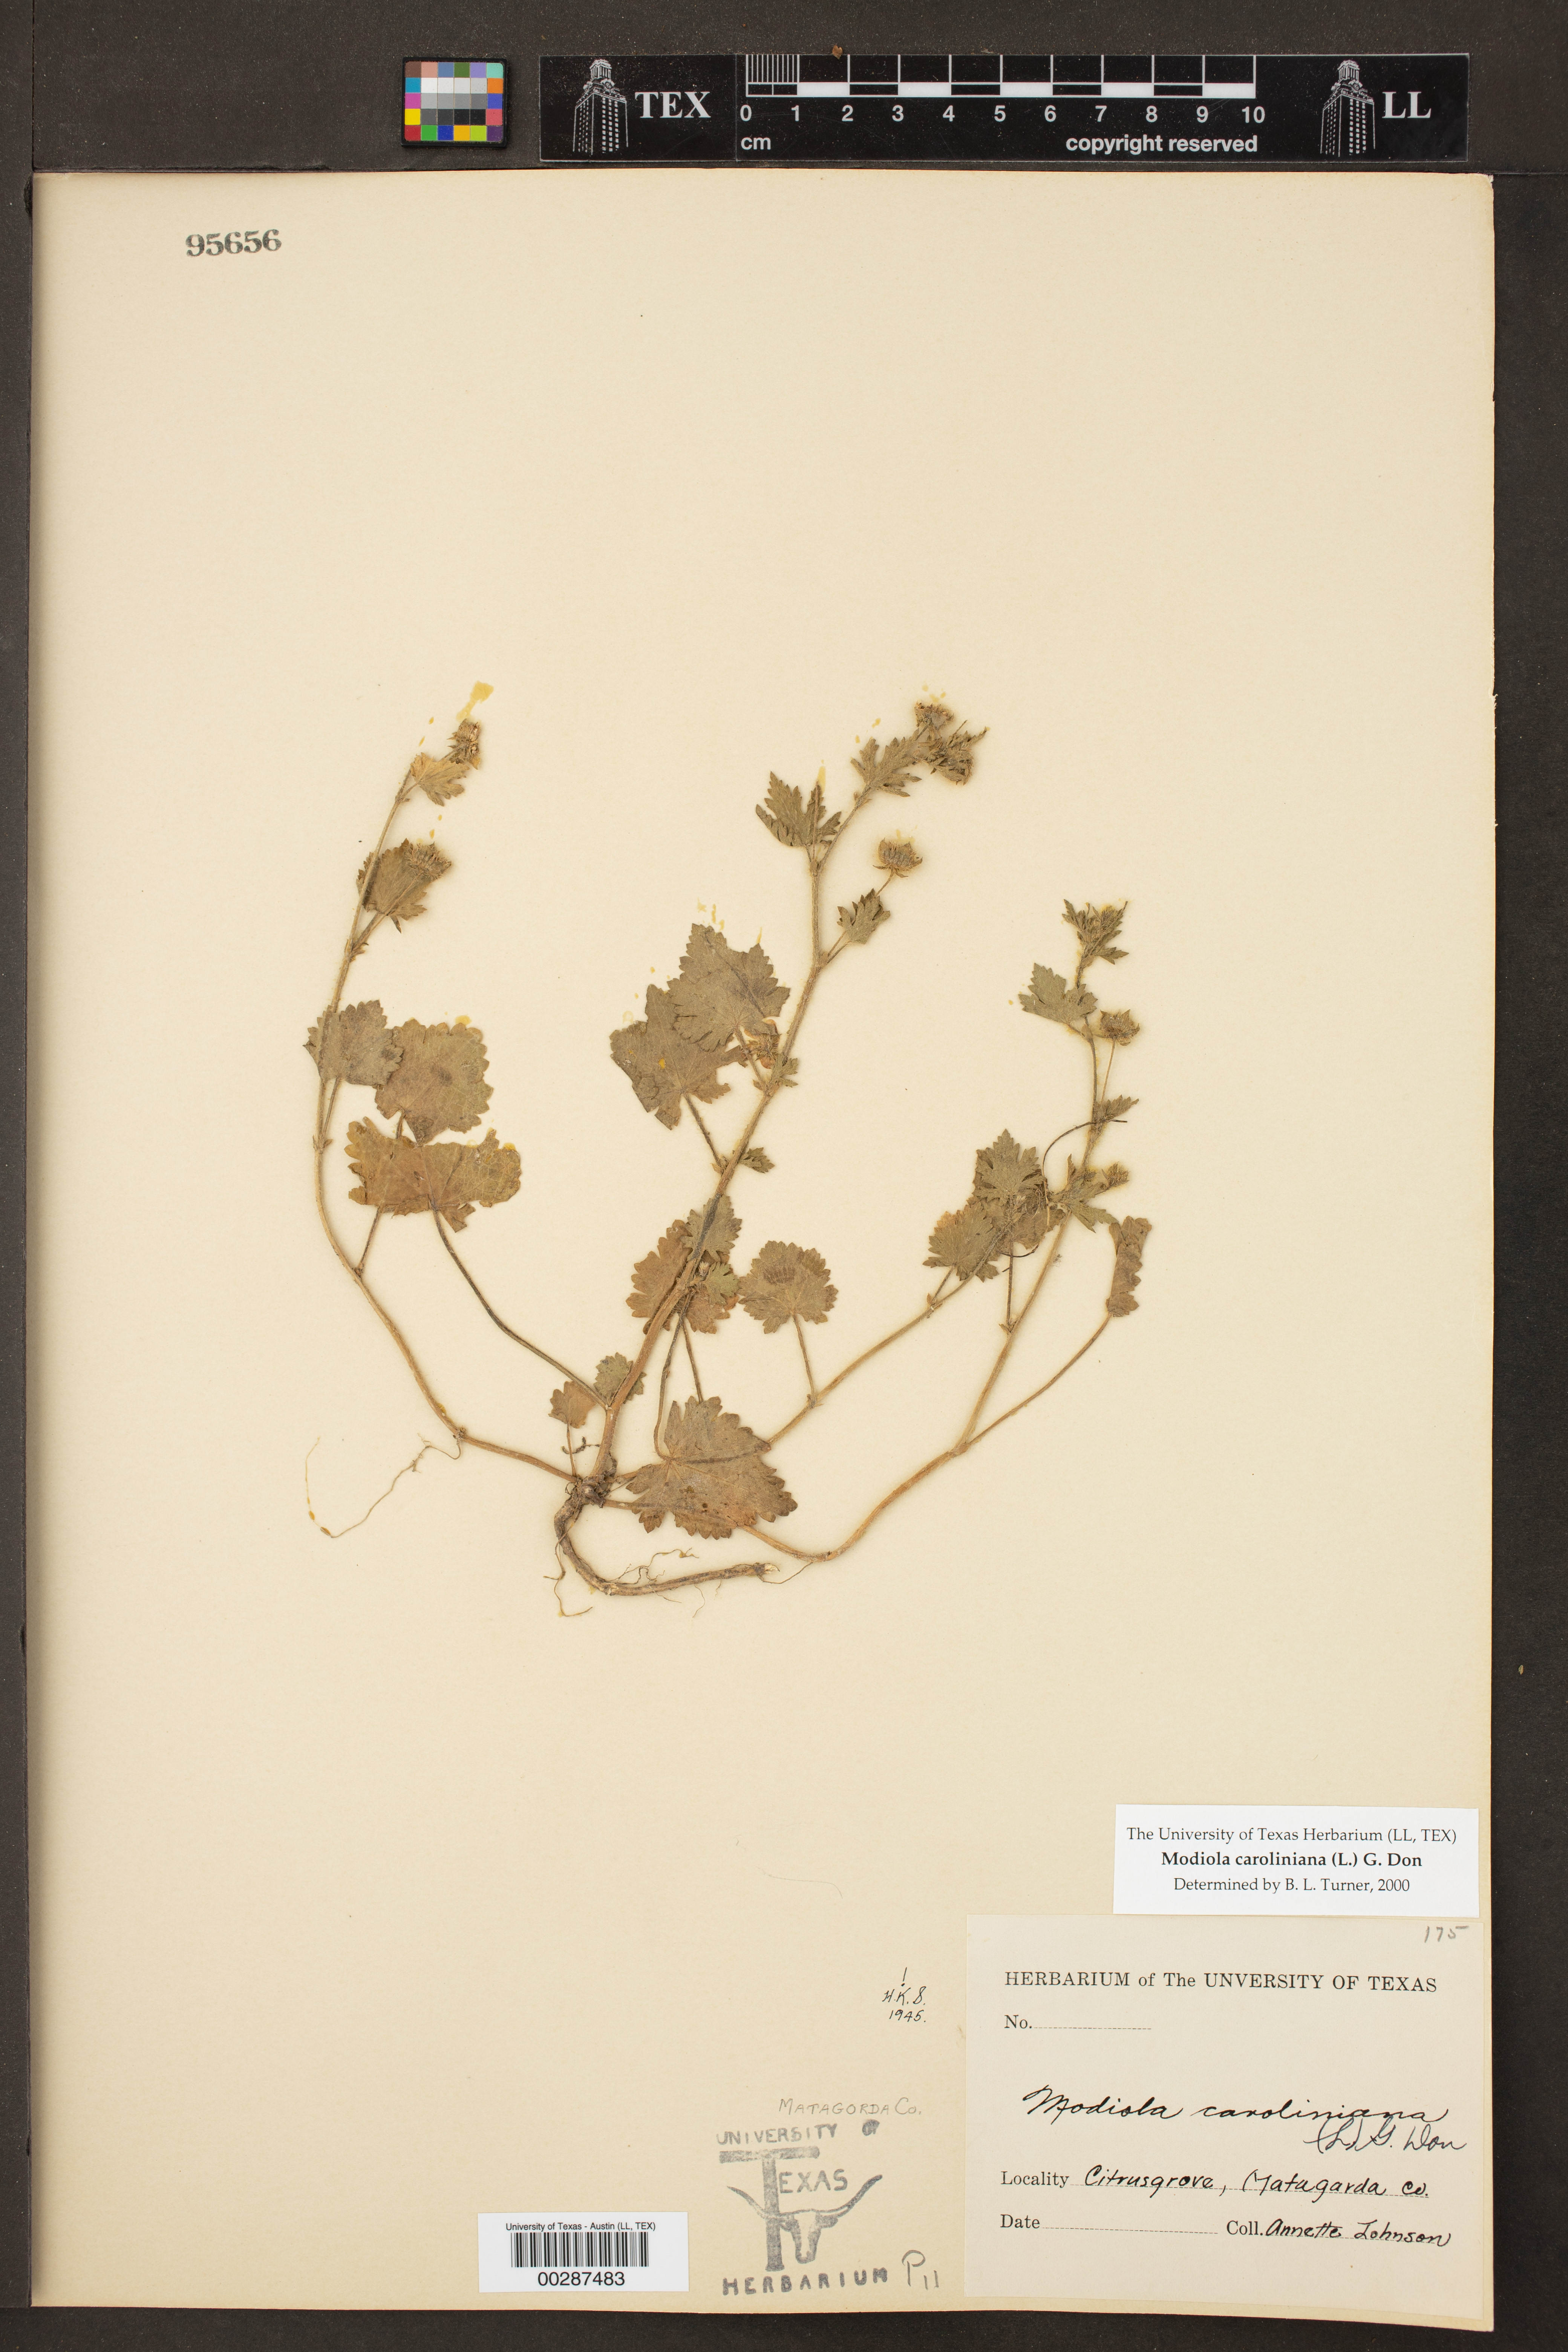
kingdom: Plantae
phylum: Tracheophyta
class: Magnoliopsida
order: Malvales
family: Malvaceae
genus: Modiola
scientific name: Modiola caroliniana
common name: Carolina bristlemallow
